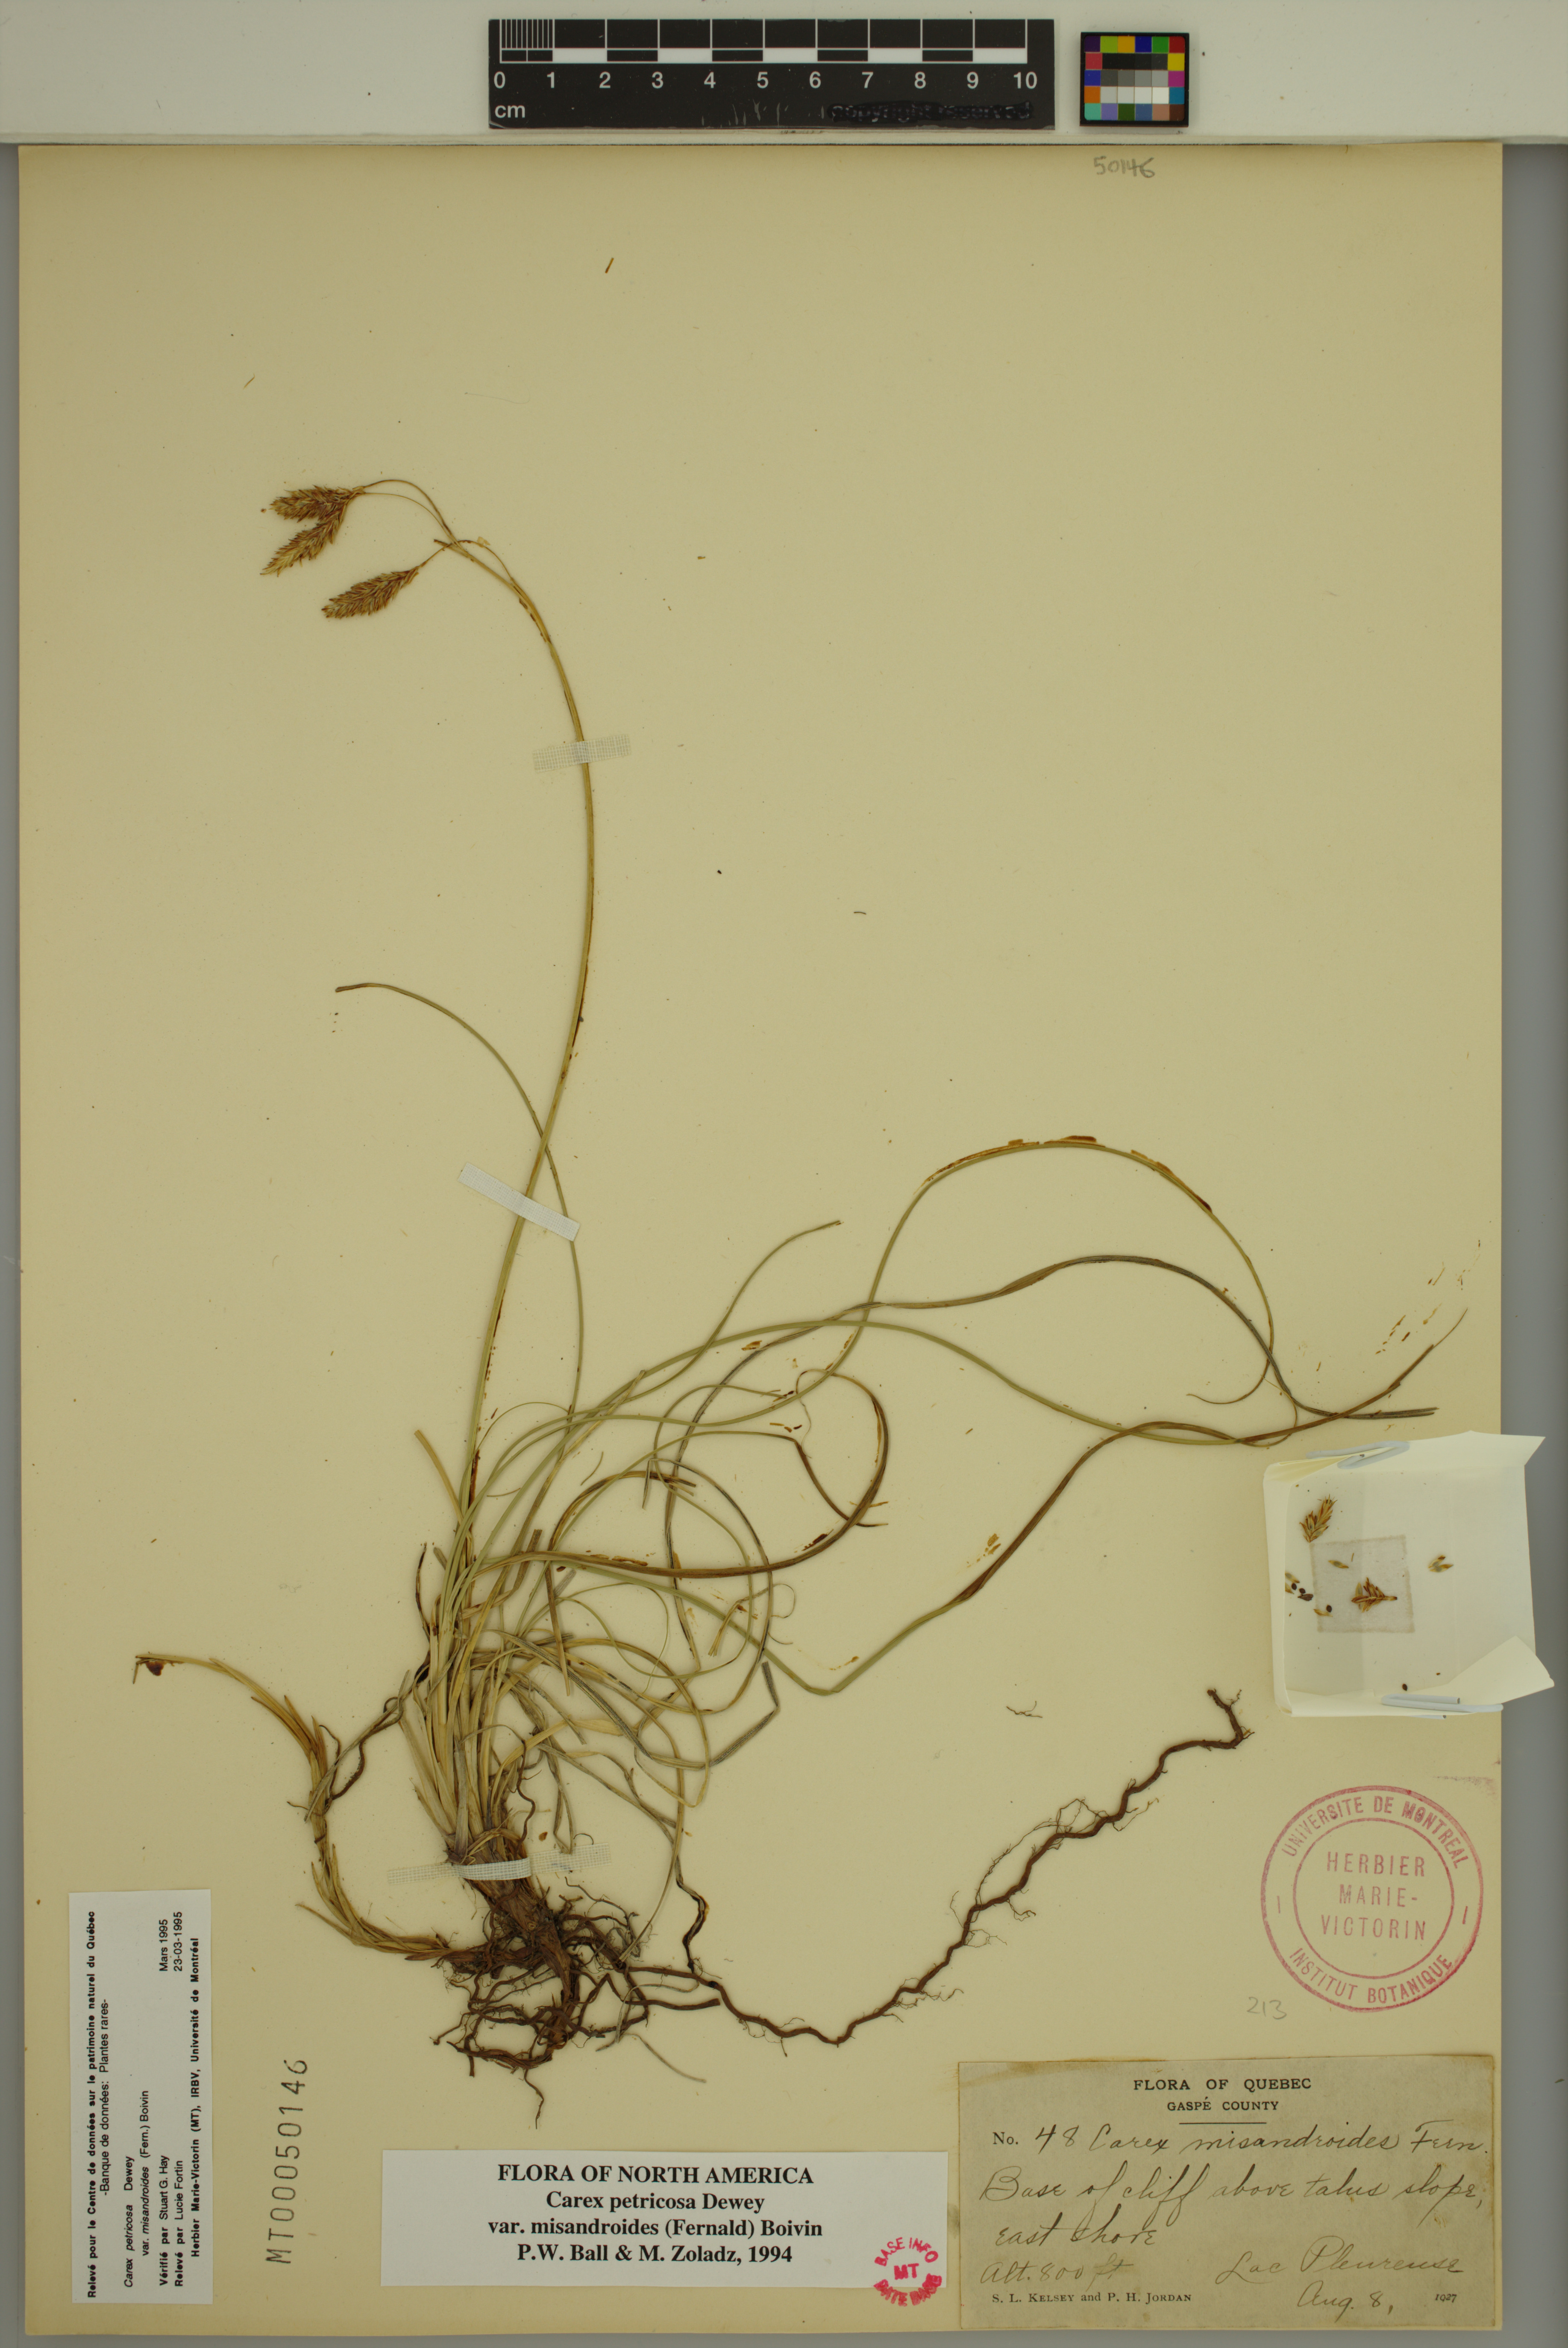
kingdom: Plantae
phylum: Tracheophyta
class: Liliopsida
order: Poales
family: Cyperaceae
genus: Carex
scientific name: Carex petricosa
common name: Rock sedge
